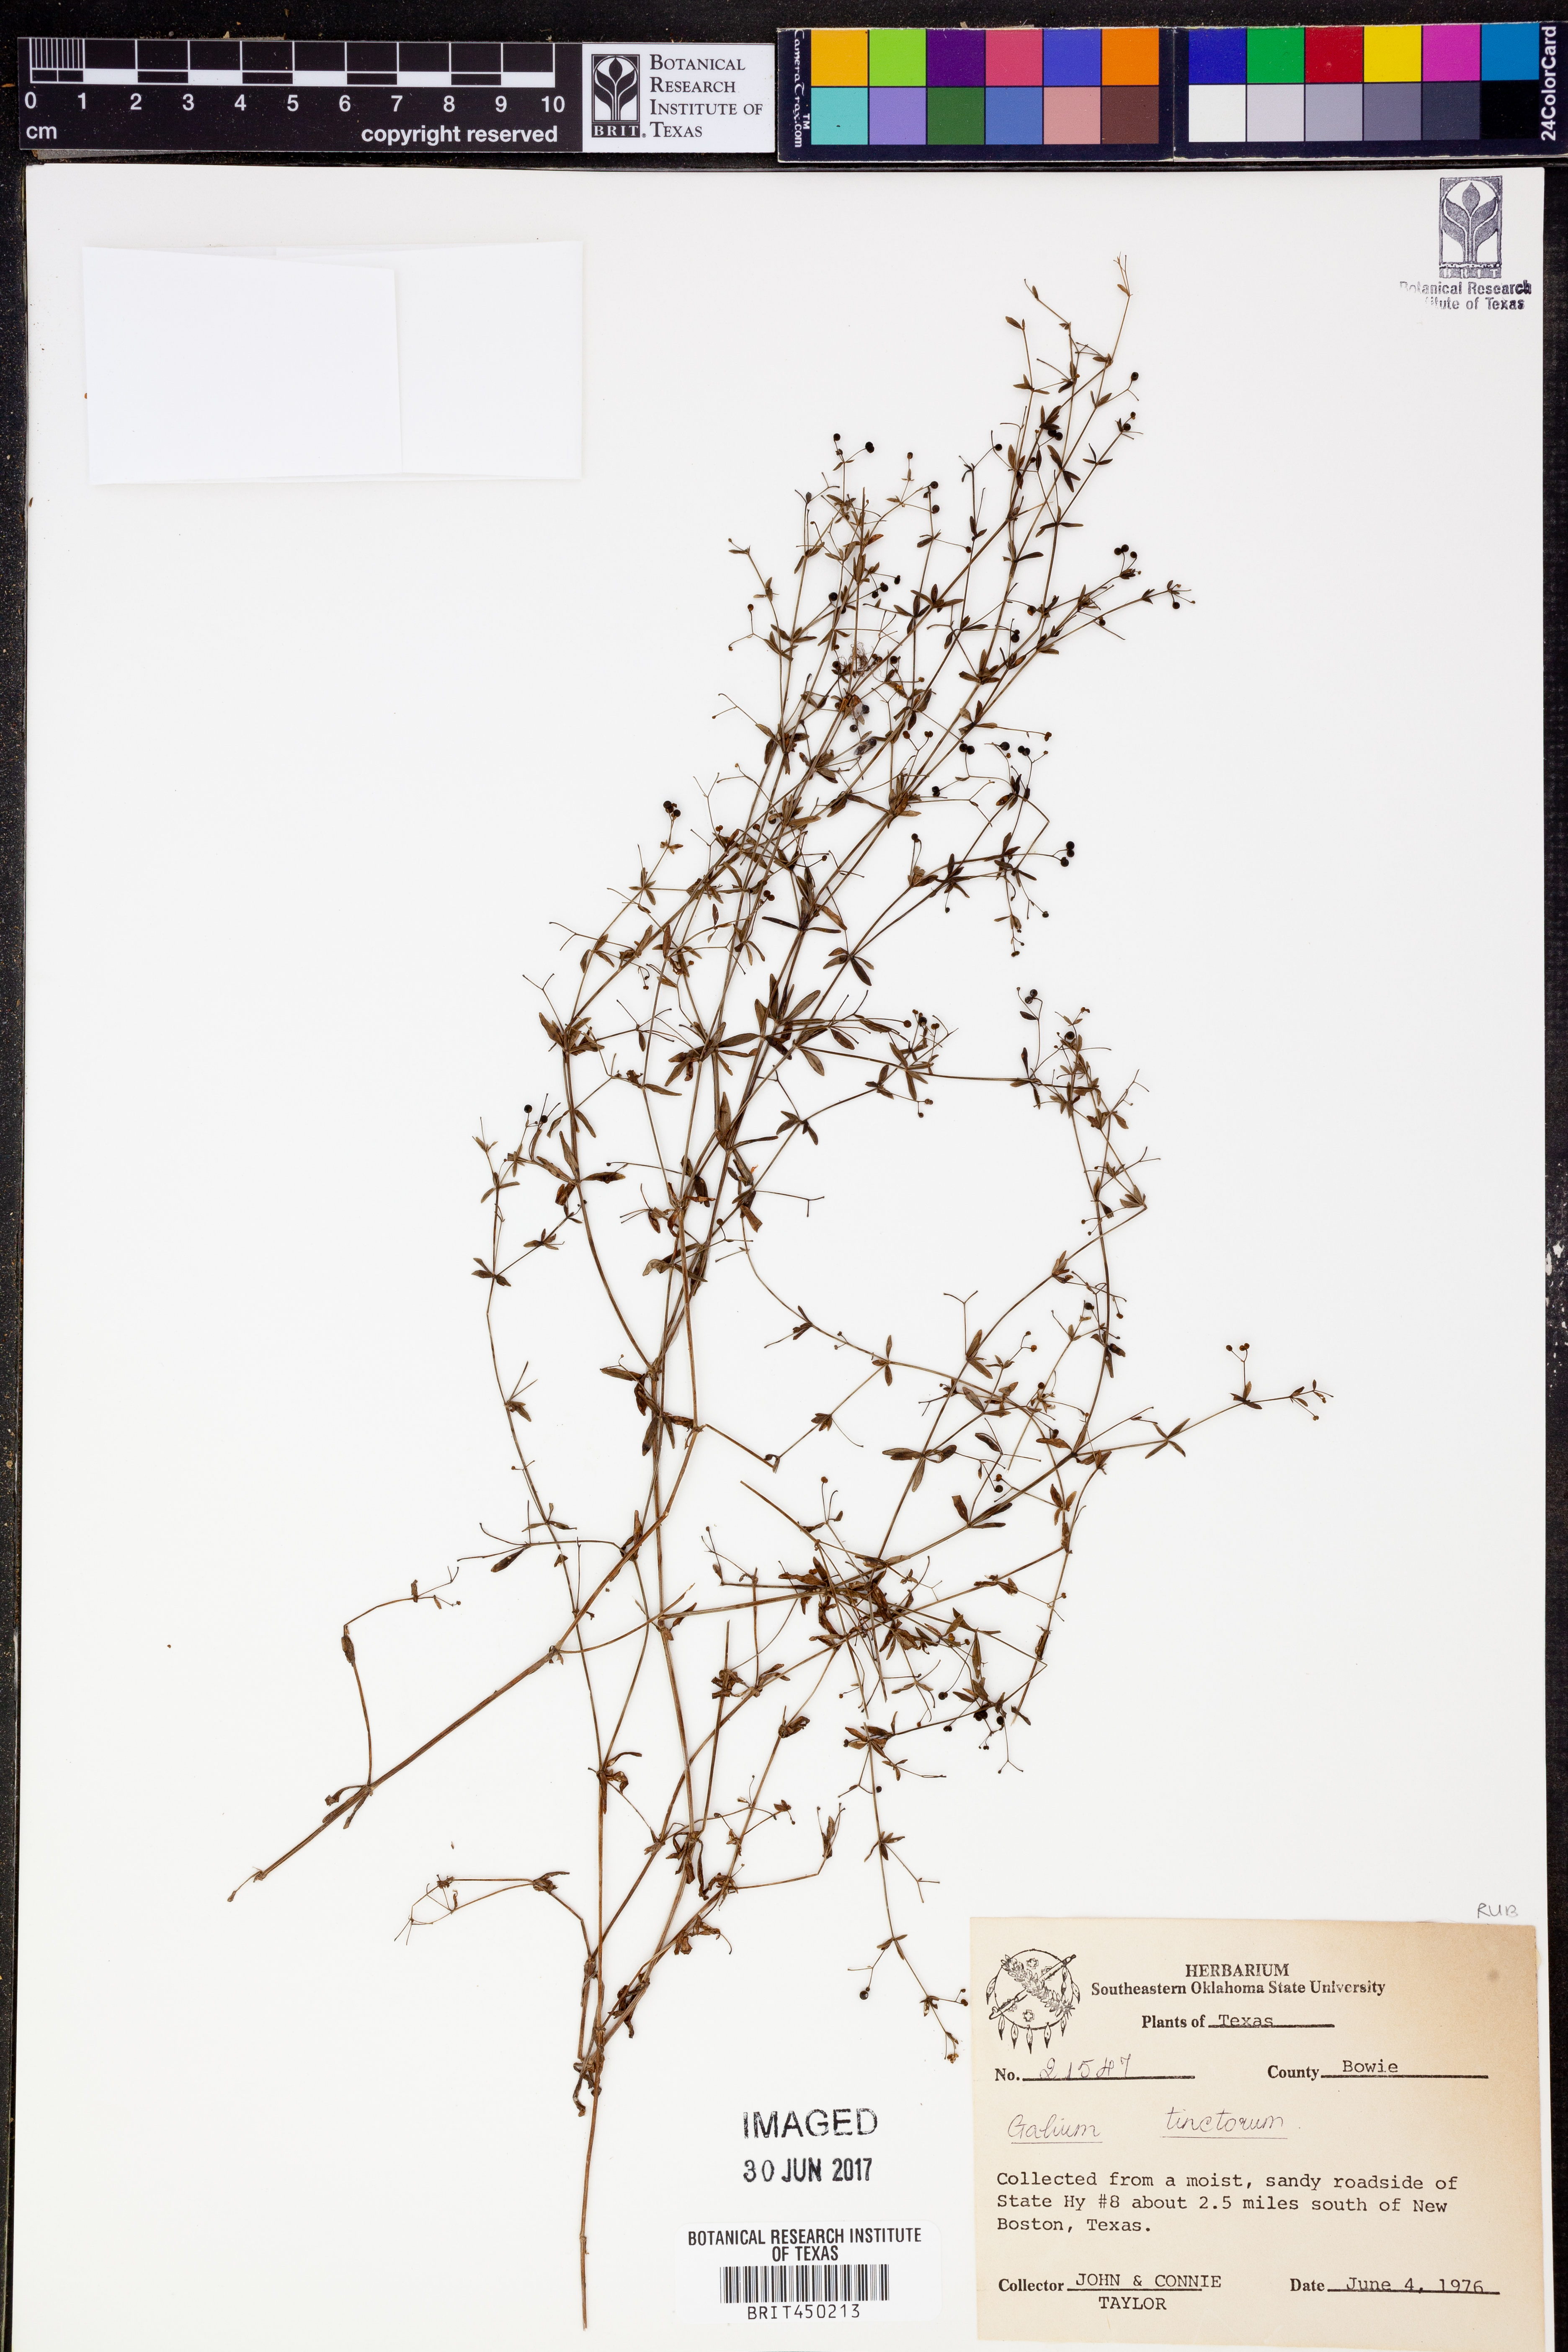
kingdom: Plantae
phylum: Tracheophyta
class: Magnoliopsida
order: Gentianales
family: Rubiaceae
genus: Asperula
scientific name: Asperula tinctoria
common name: Dyer's woodruff
